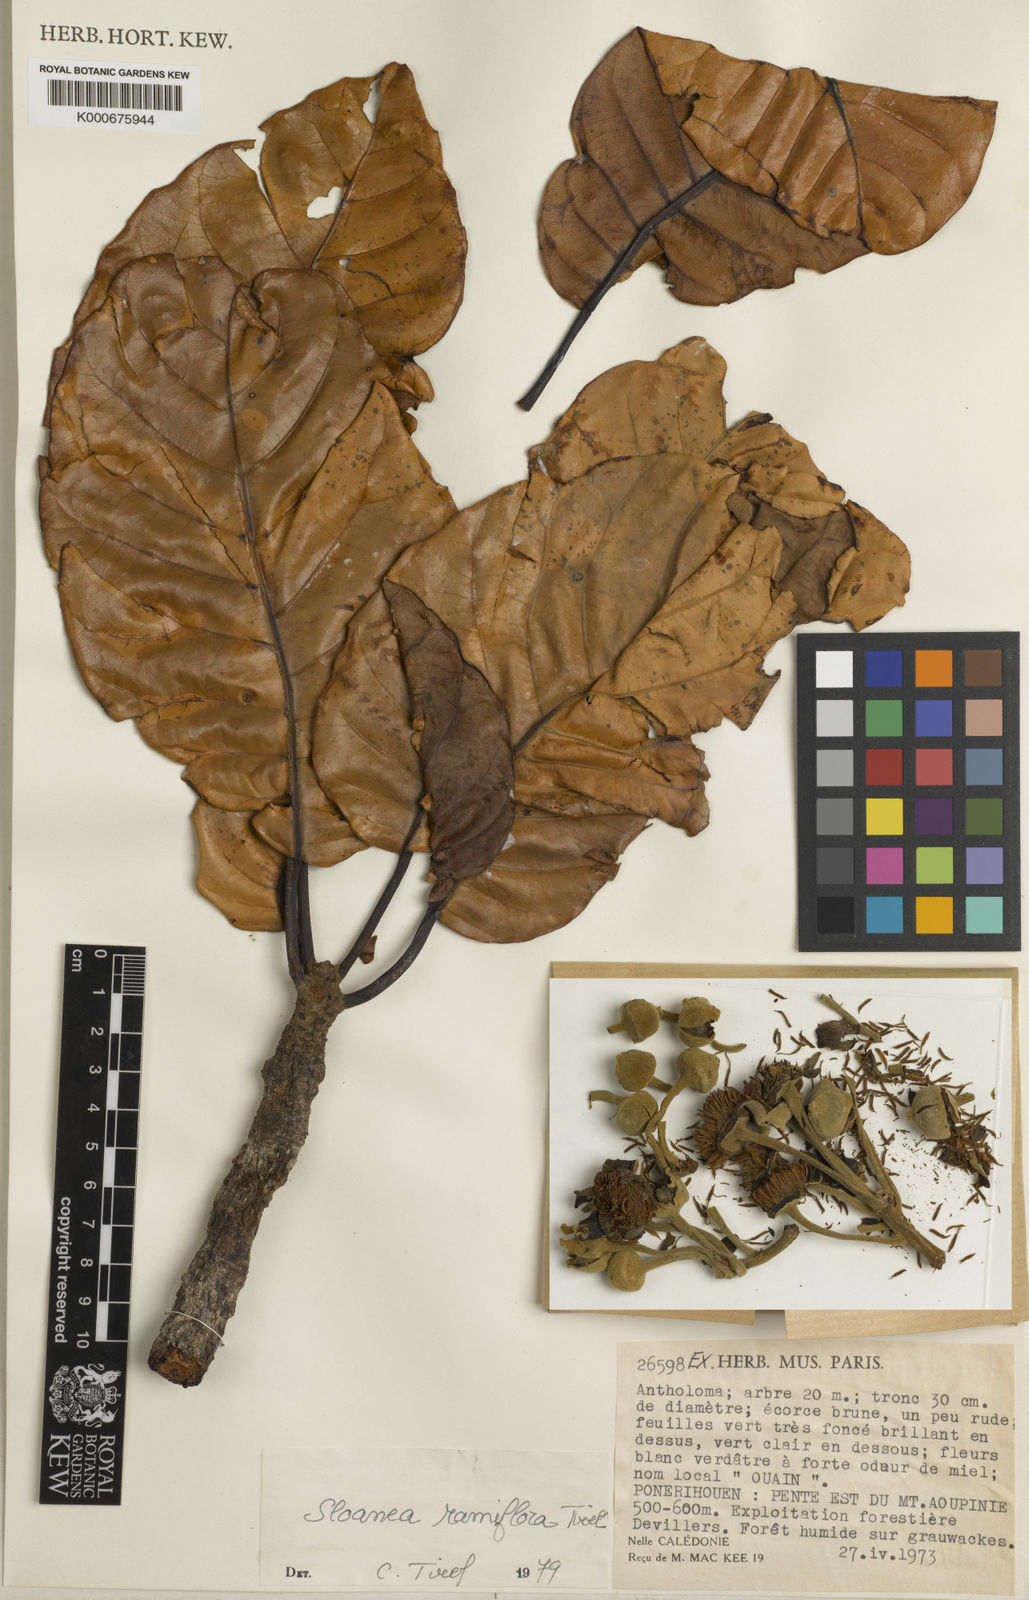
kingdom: Plantae
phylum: Tracheophyta
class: Magnoliopsida
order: Oxalidales
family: Elaeocarpaceae
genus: Sloanea
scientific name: Sloanea ramiflora
